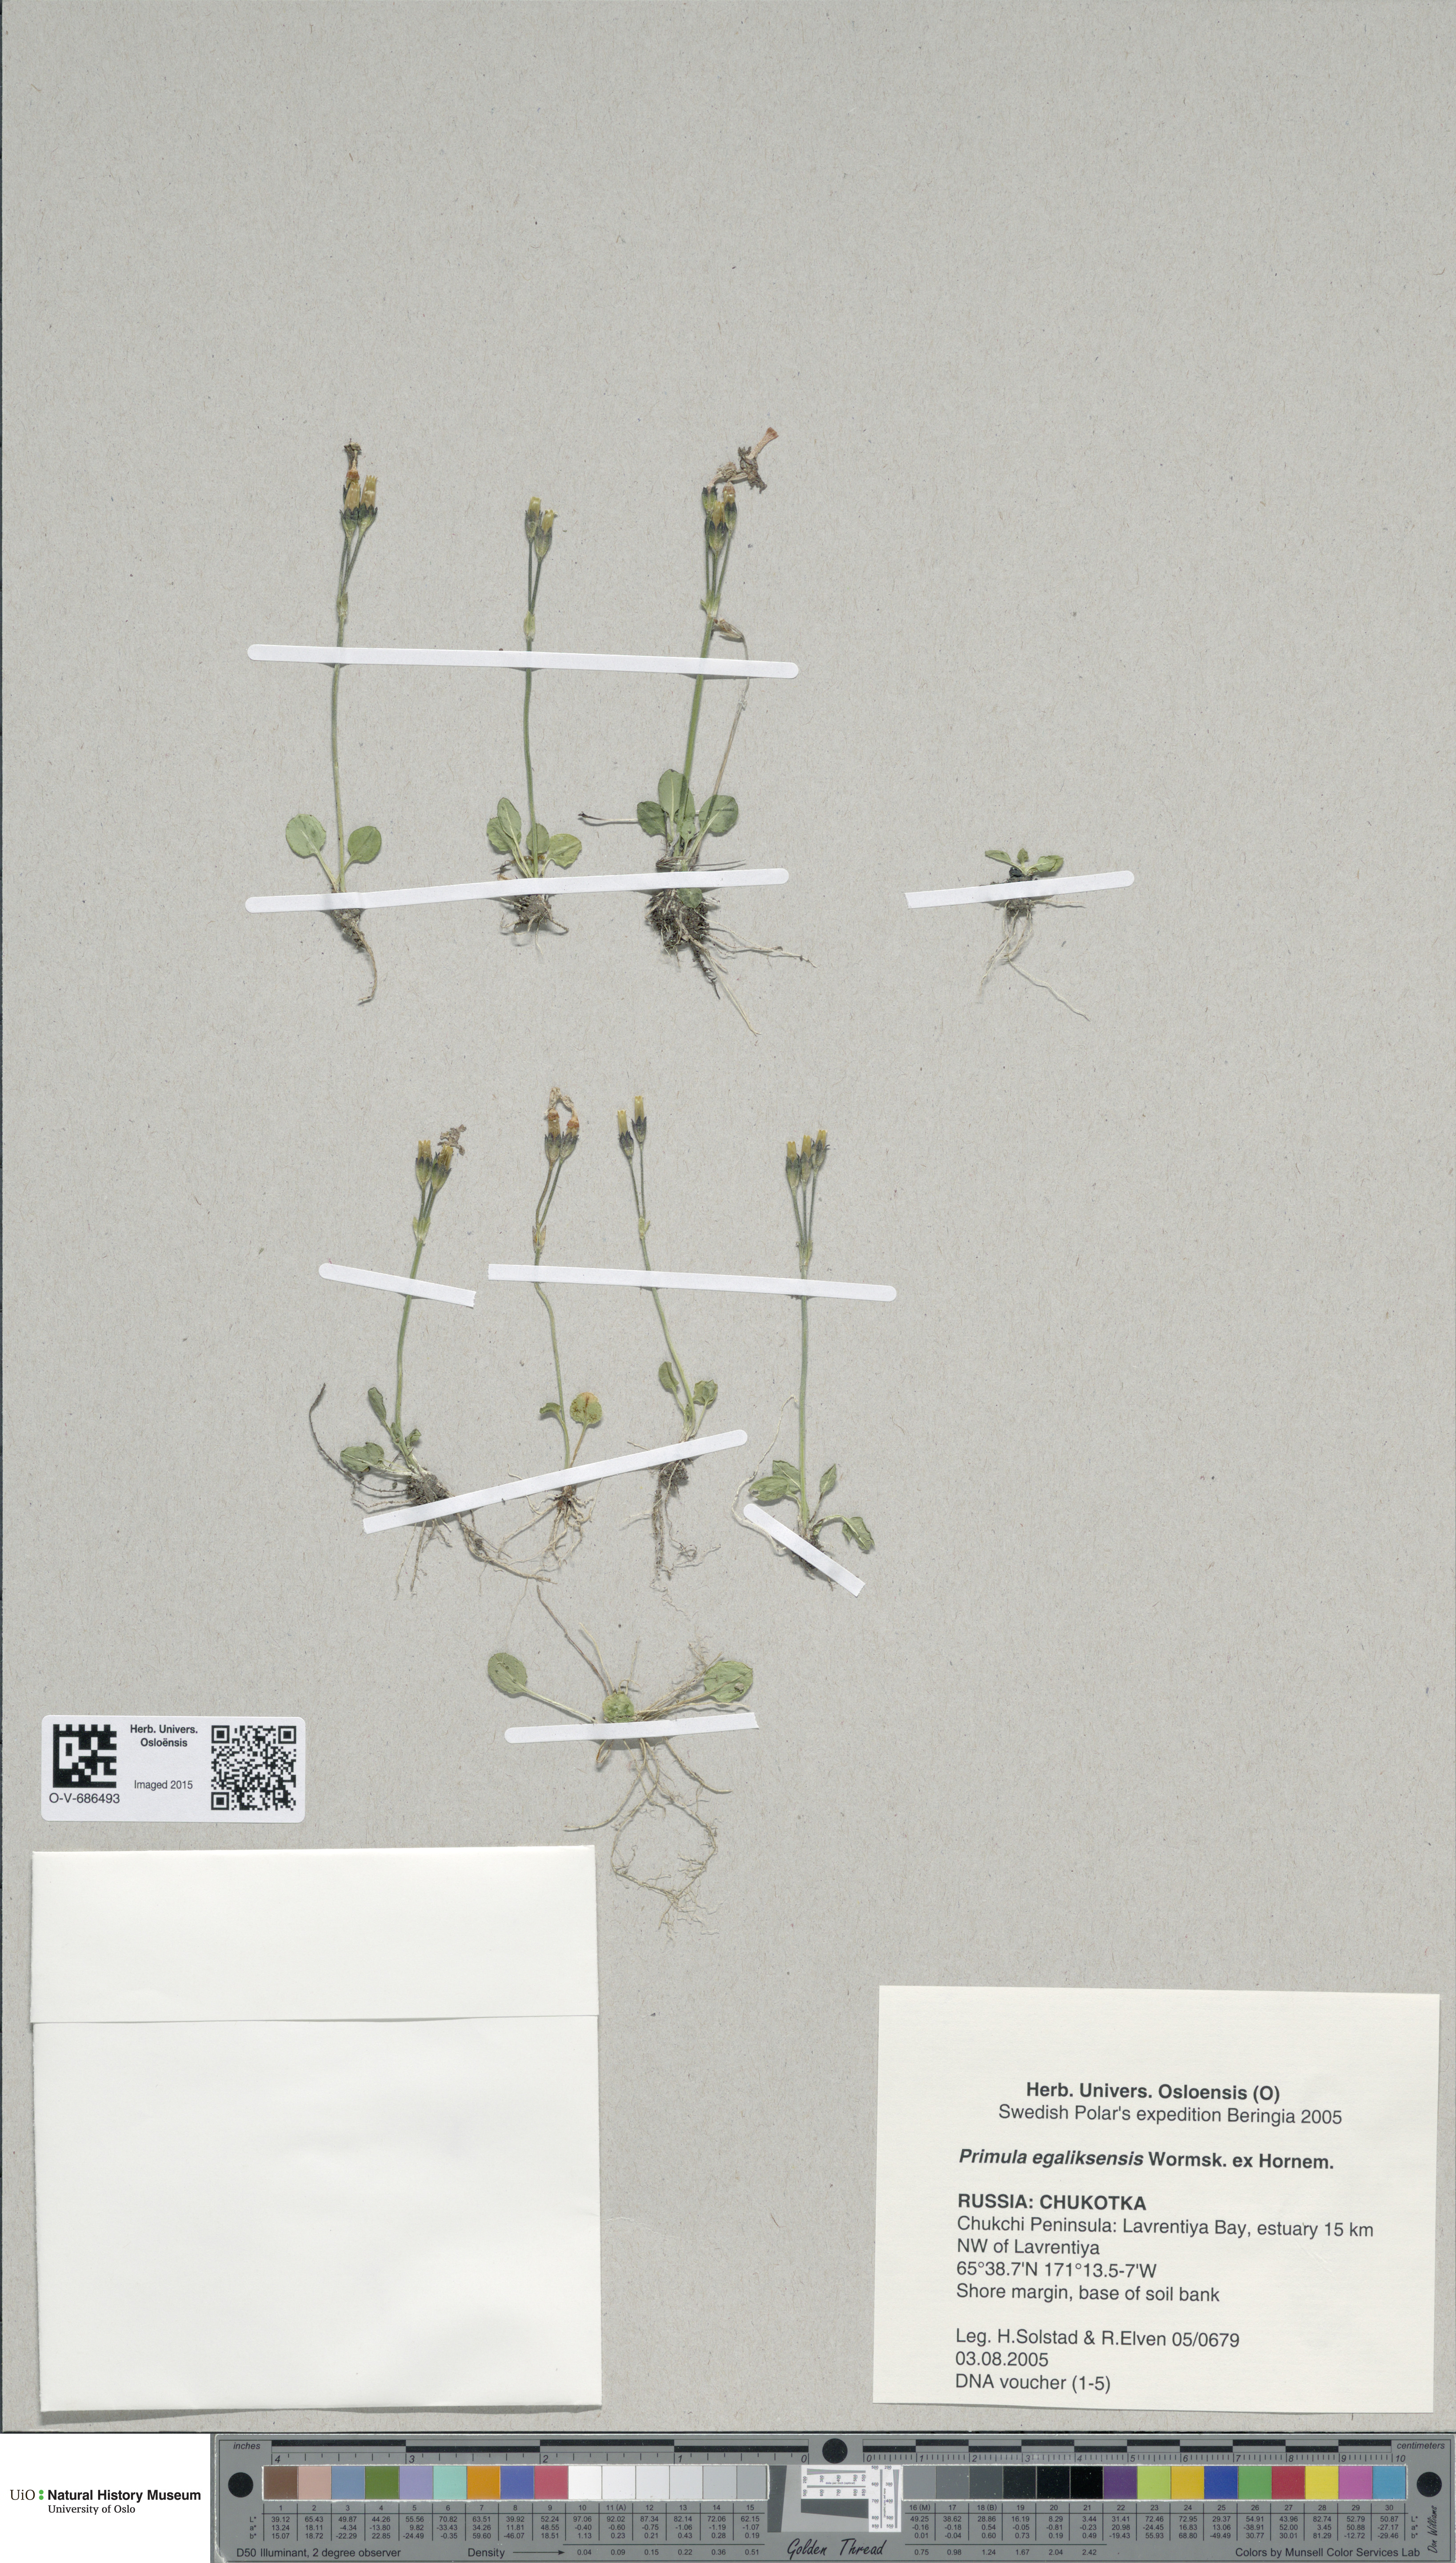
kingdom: Plantae
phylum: Tracheophyta
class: Magnoliopsida
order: Ericales
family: Primulaceae
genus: Primula
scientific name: Primula egaliksensis
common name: Greenland primrose
